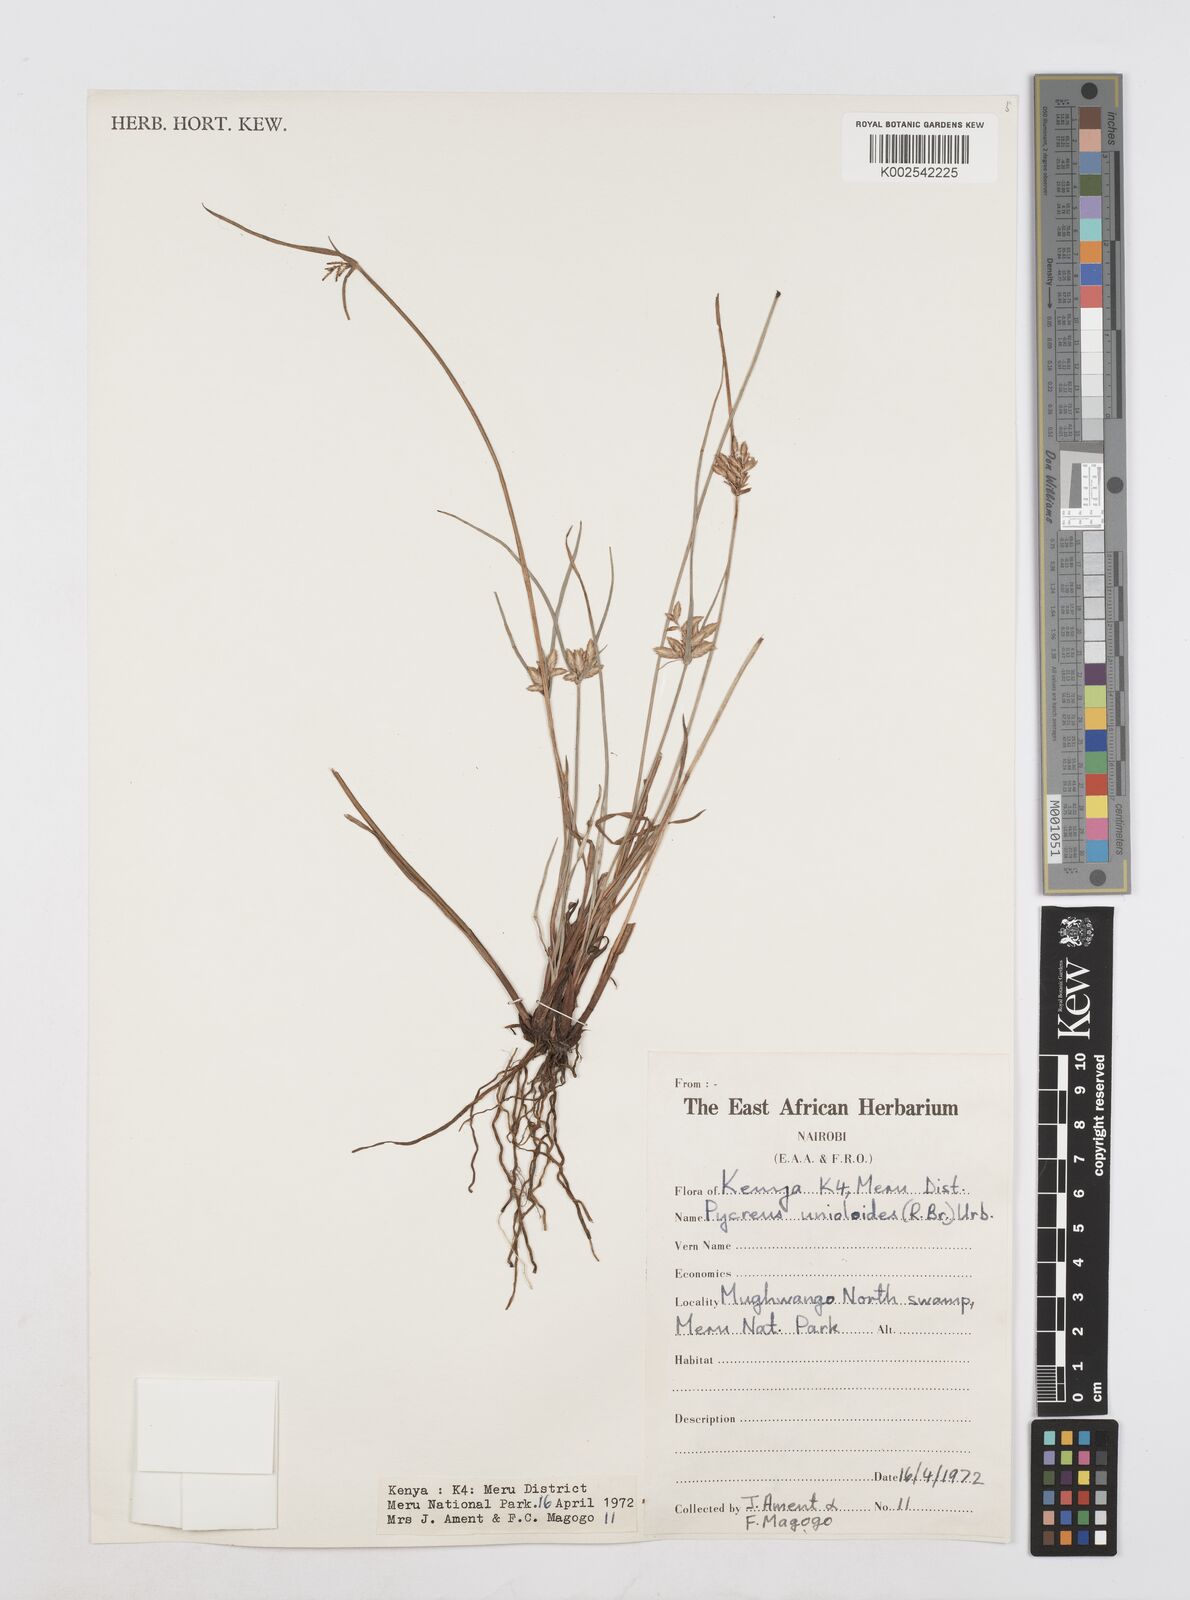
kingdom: Plantae
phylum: Tracheophyta
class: Liliopsida
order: Poales
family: Cyperaceae
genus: Cyperus
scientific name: Cyperus
